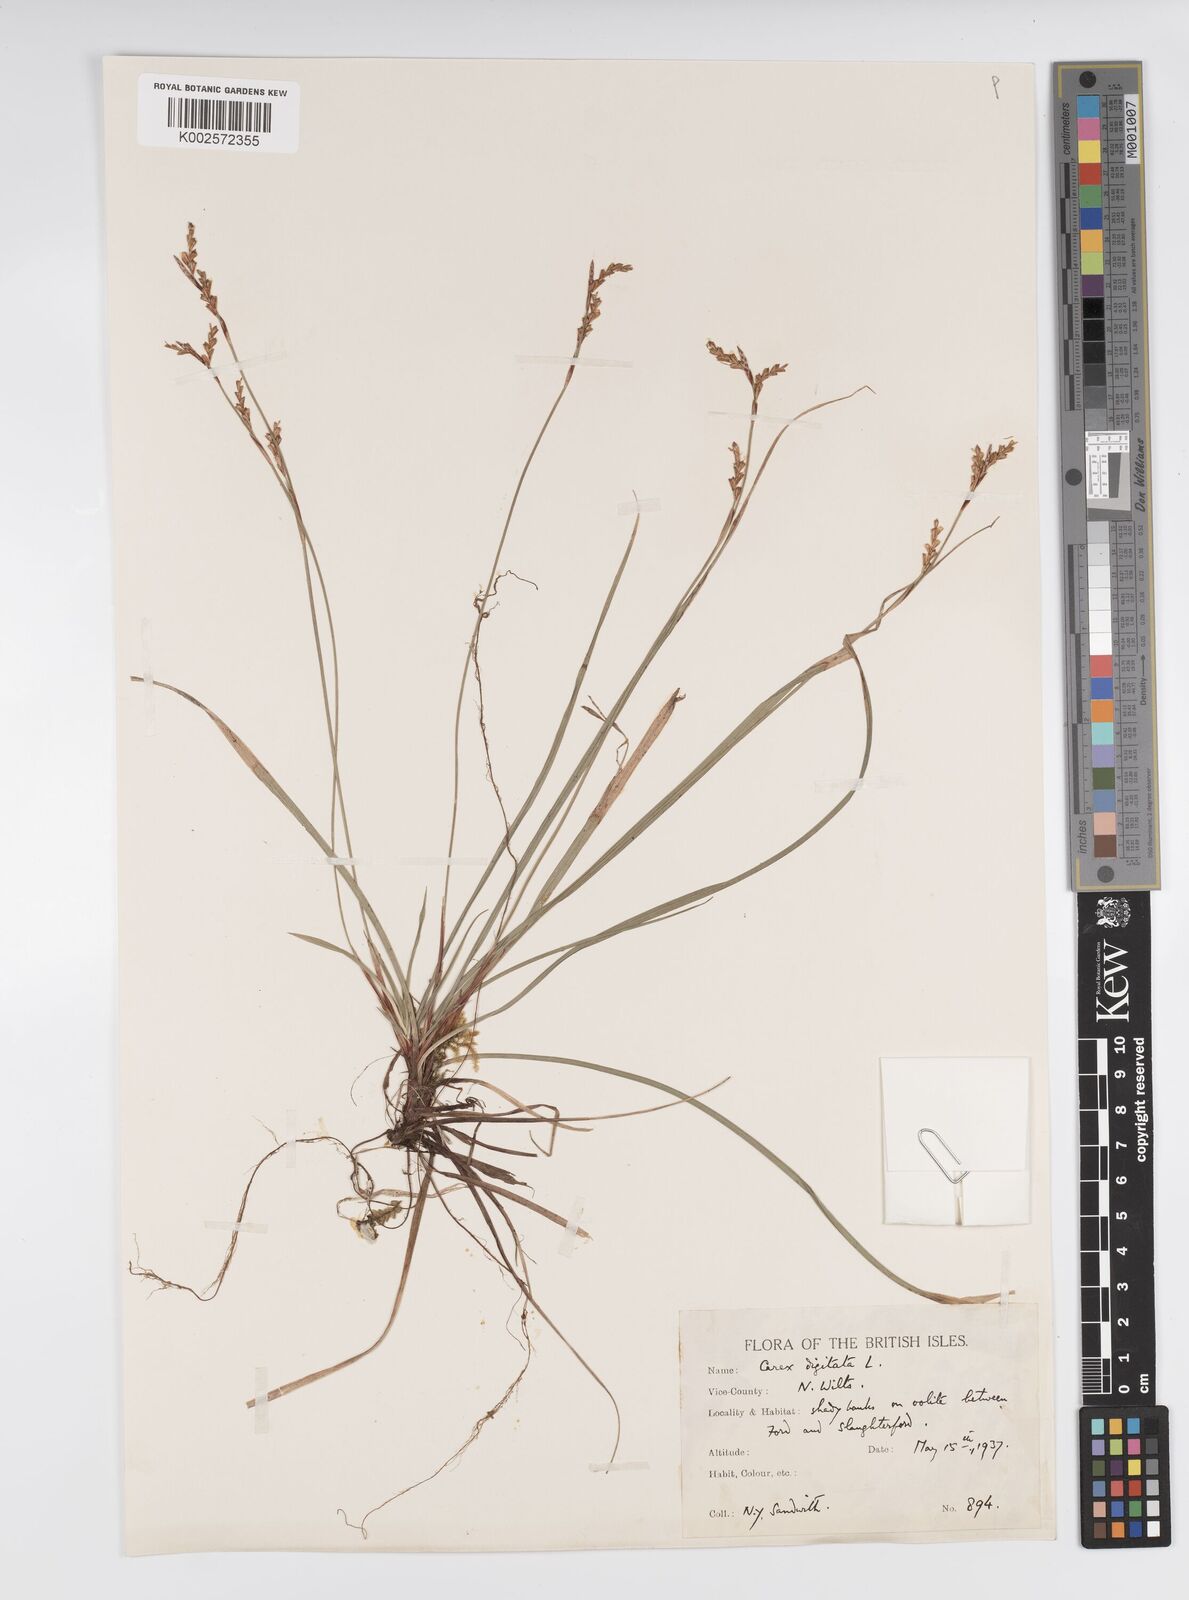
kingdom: Plantae
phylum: Tracheophyta
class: Liliopsida
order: Poales
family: Cyperaceae
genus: Carex
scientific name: Carex digitata
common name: Fingered sedge
